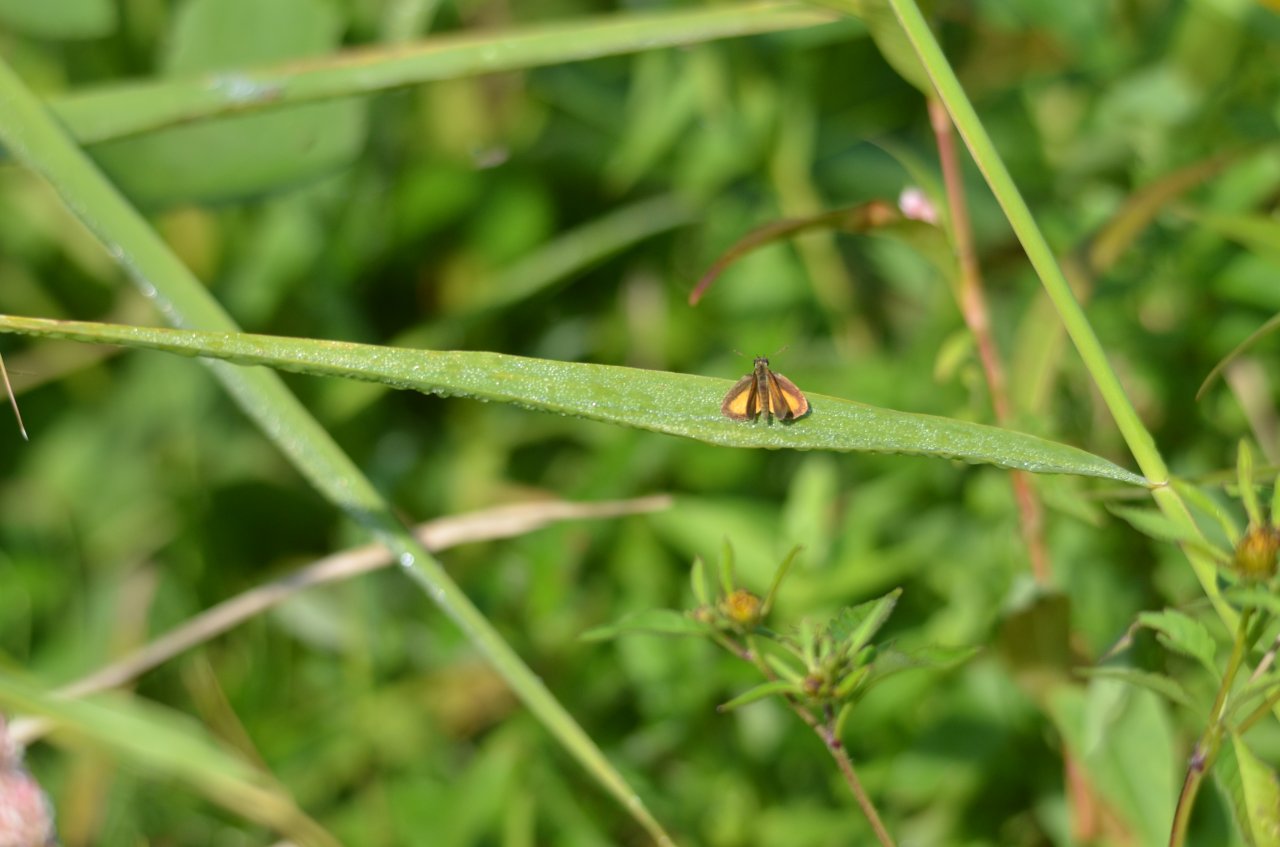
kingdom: Animalia
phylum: Arthropoda
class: Insecta
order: Lepidoptera
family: Hesperiidae
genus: Ancyloxypha
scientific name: Ancyloxypha numitor
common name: Least Skipper
